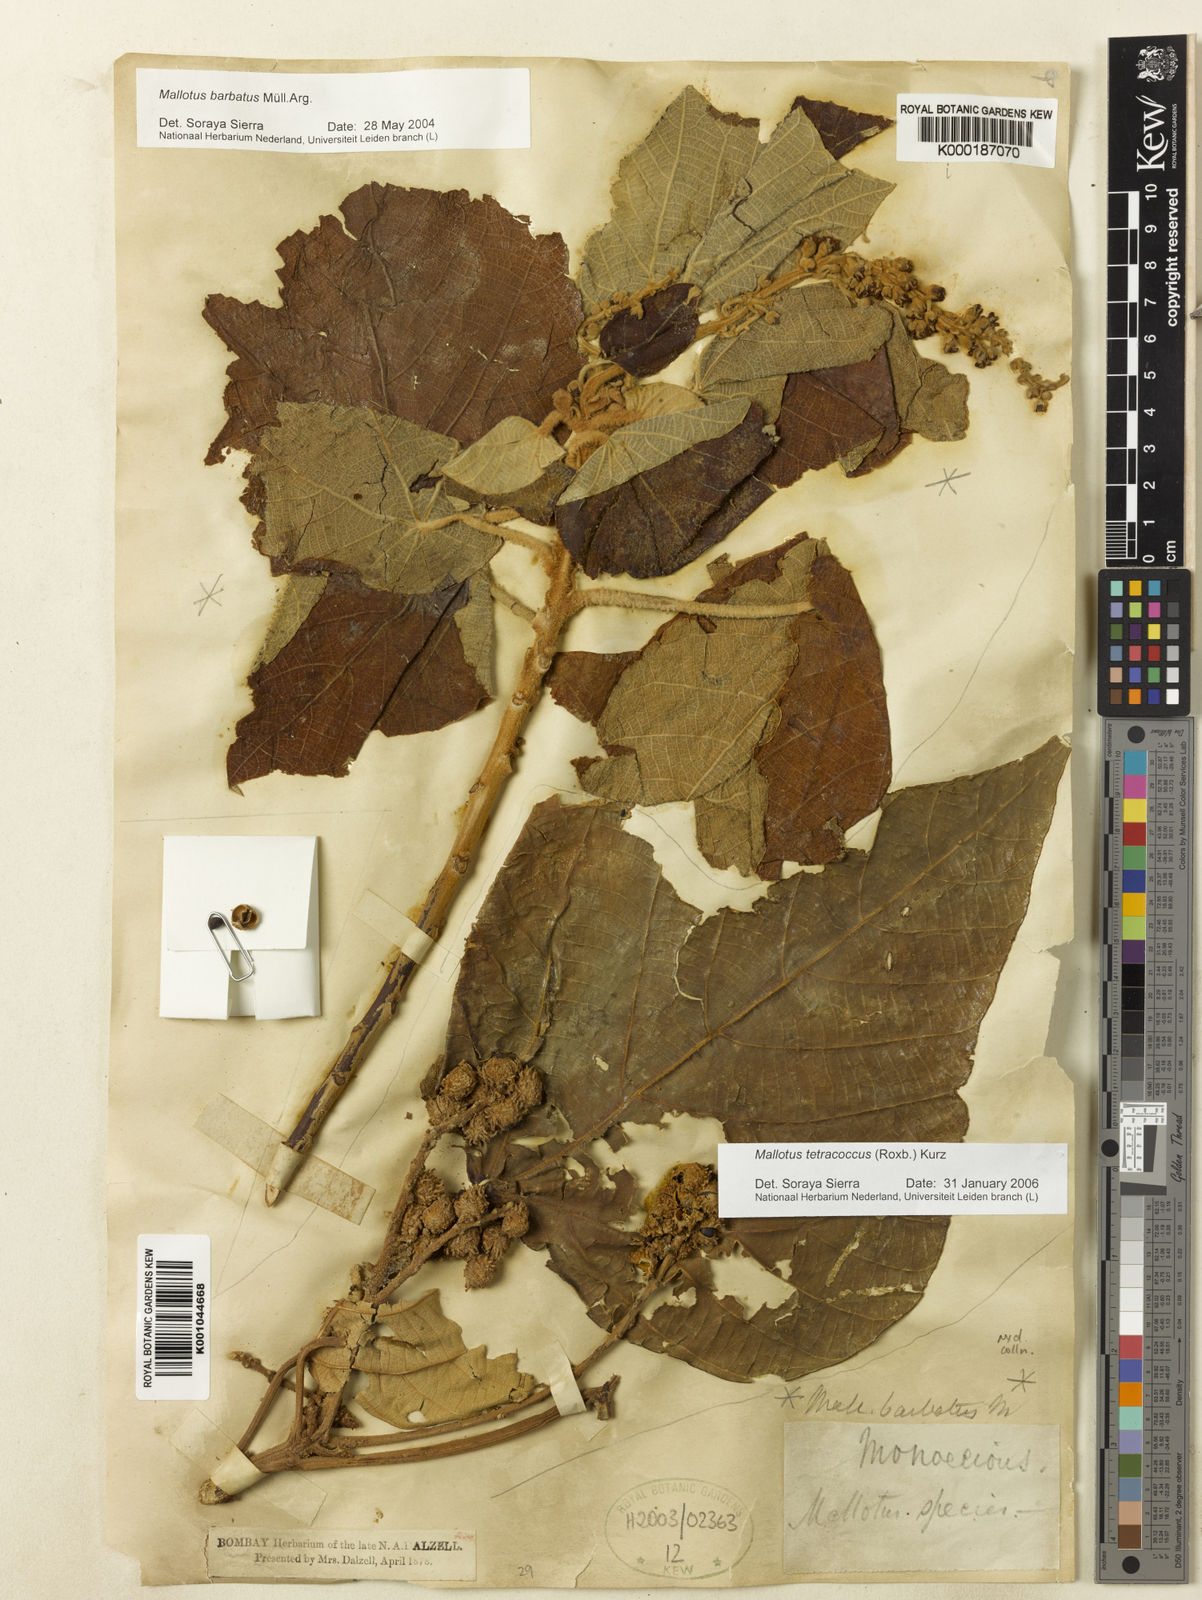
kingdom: Plantae
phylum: Tracheophyta
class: Magnoliopsida
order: Malpighiales
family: Euphorbiaceae
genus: Mallotus
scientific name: Mallotus
